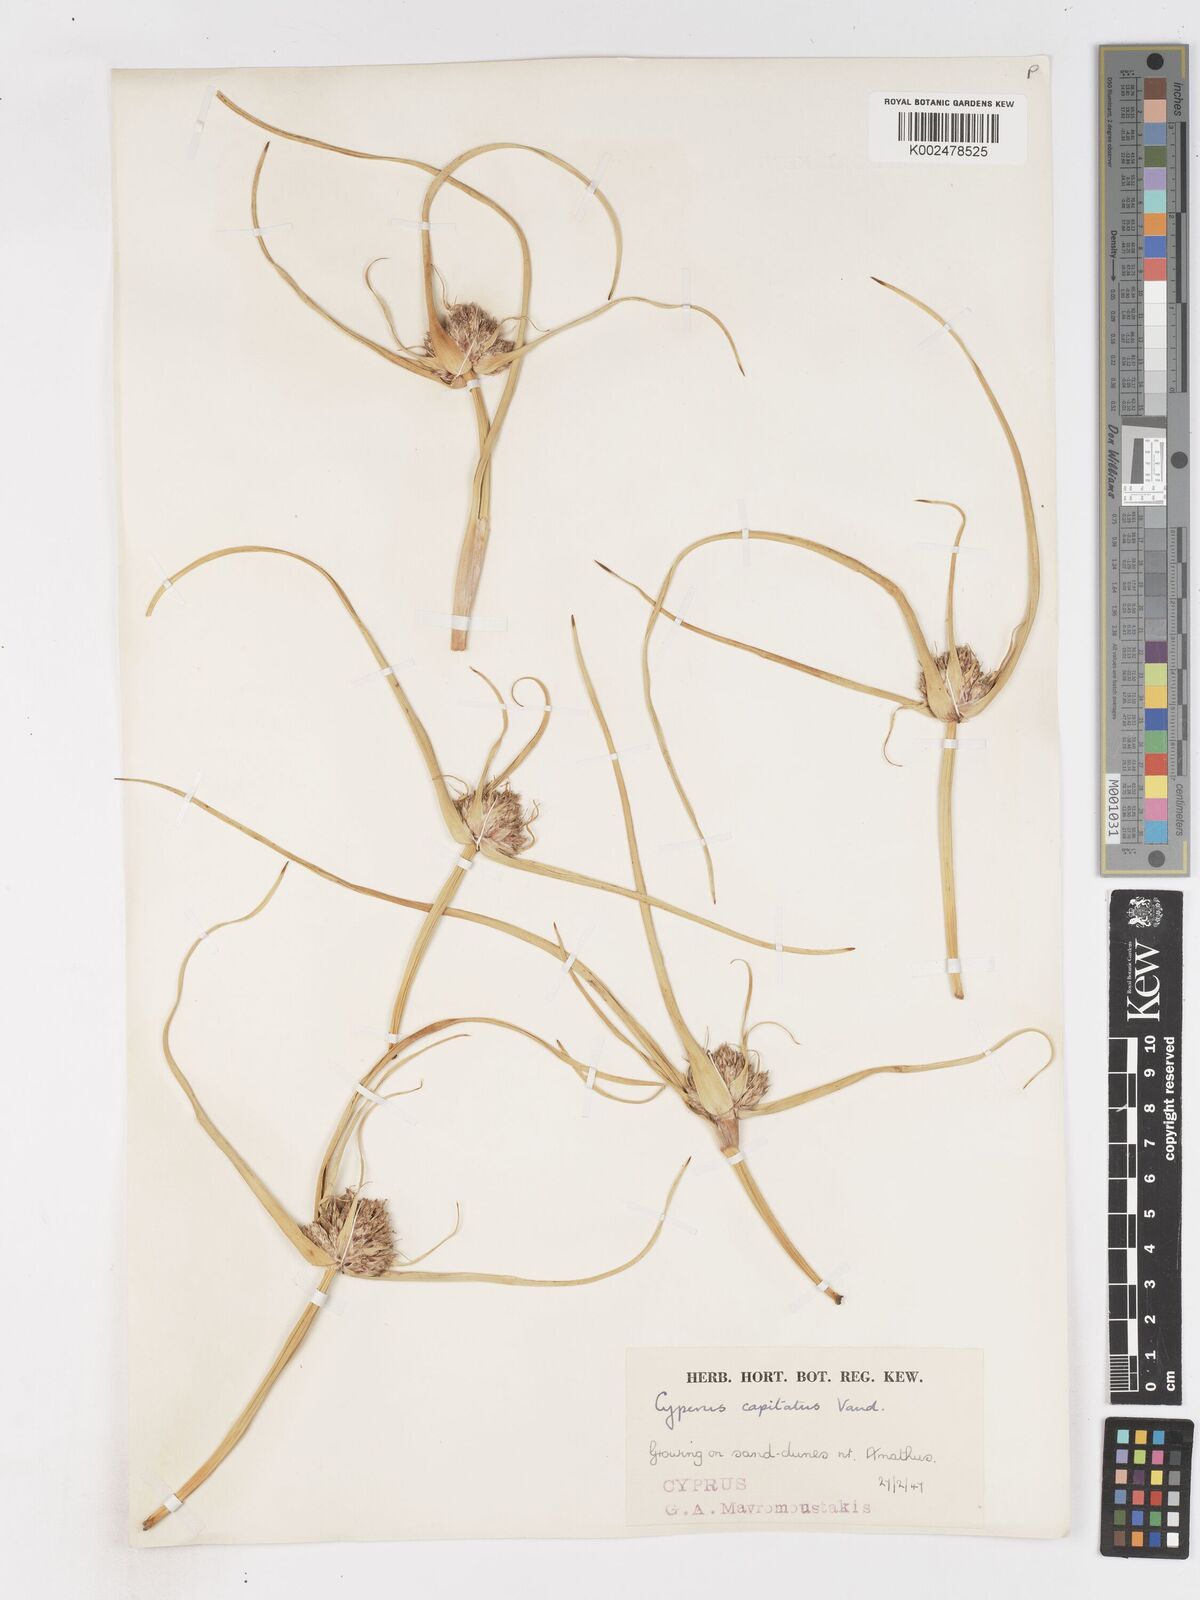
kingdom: Plantae
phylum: Tracheophyta
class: Liliopsida
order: Poales
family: Cyperaceae
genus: Cyperus
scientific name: Cyperus capitatus
